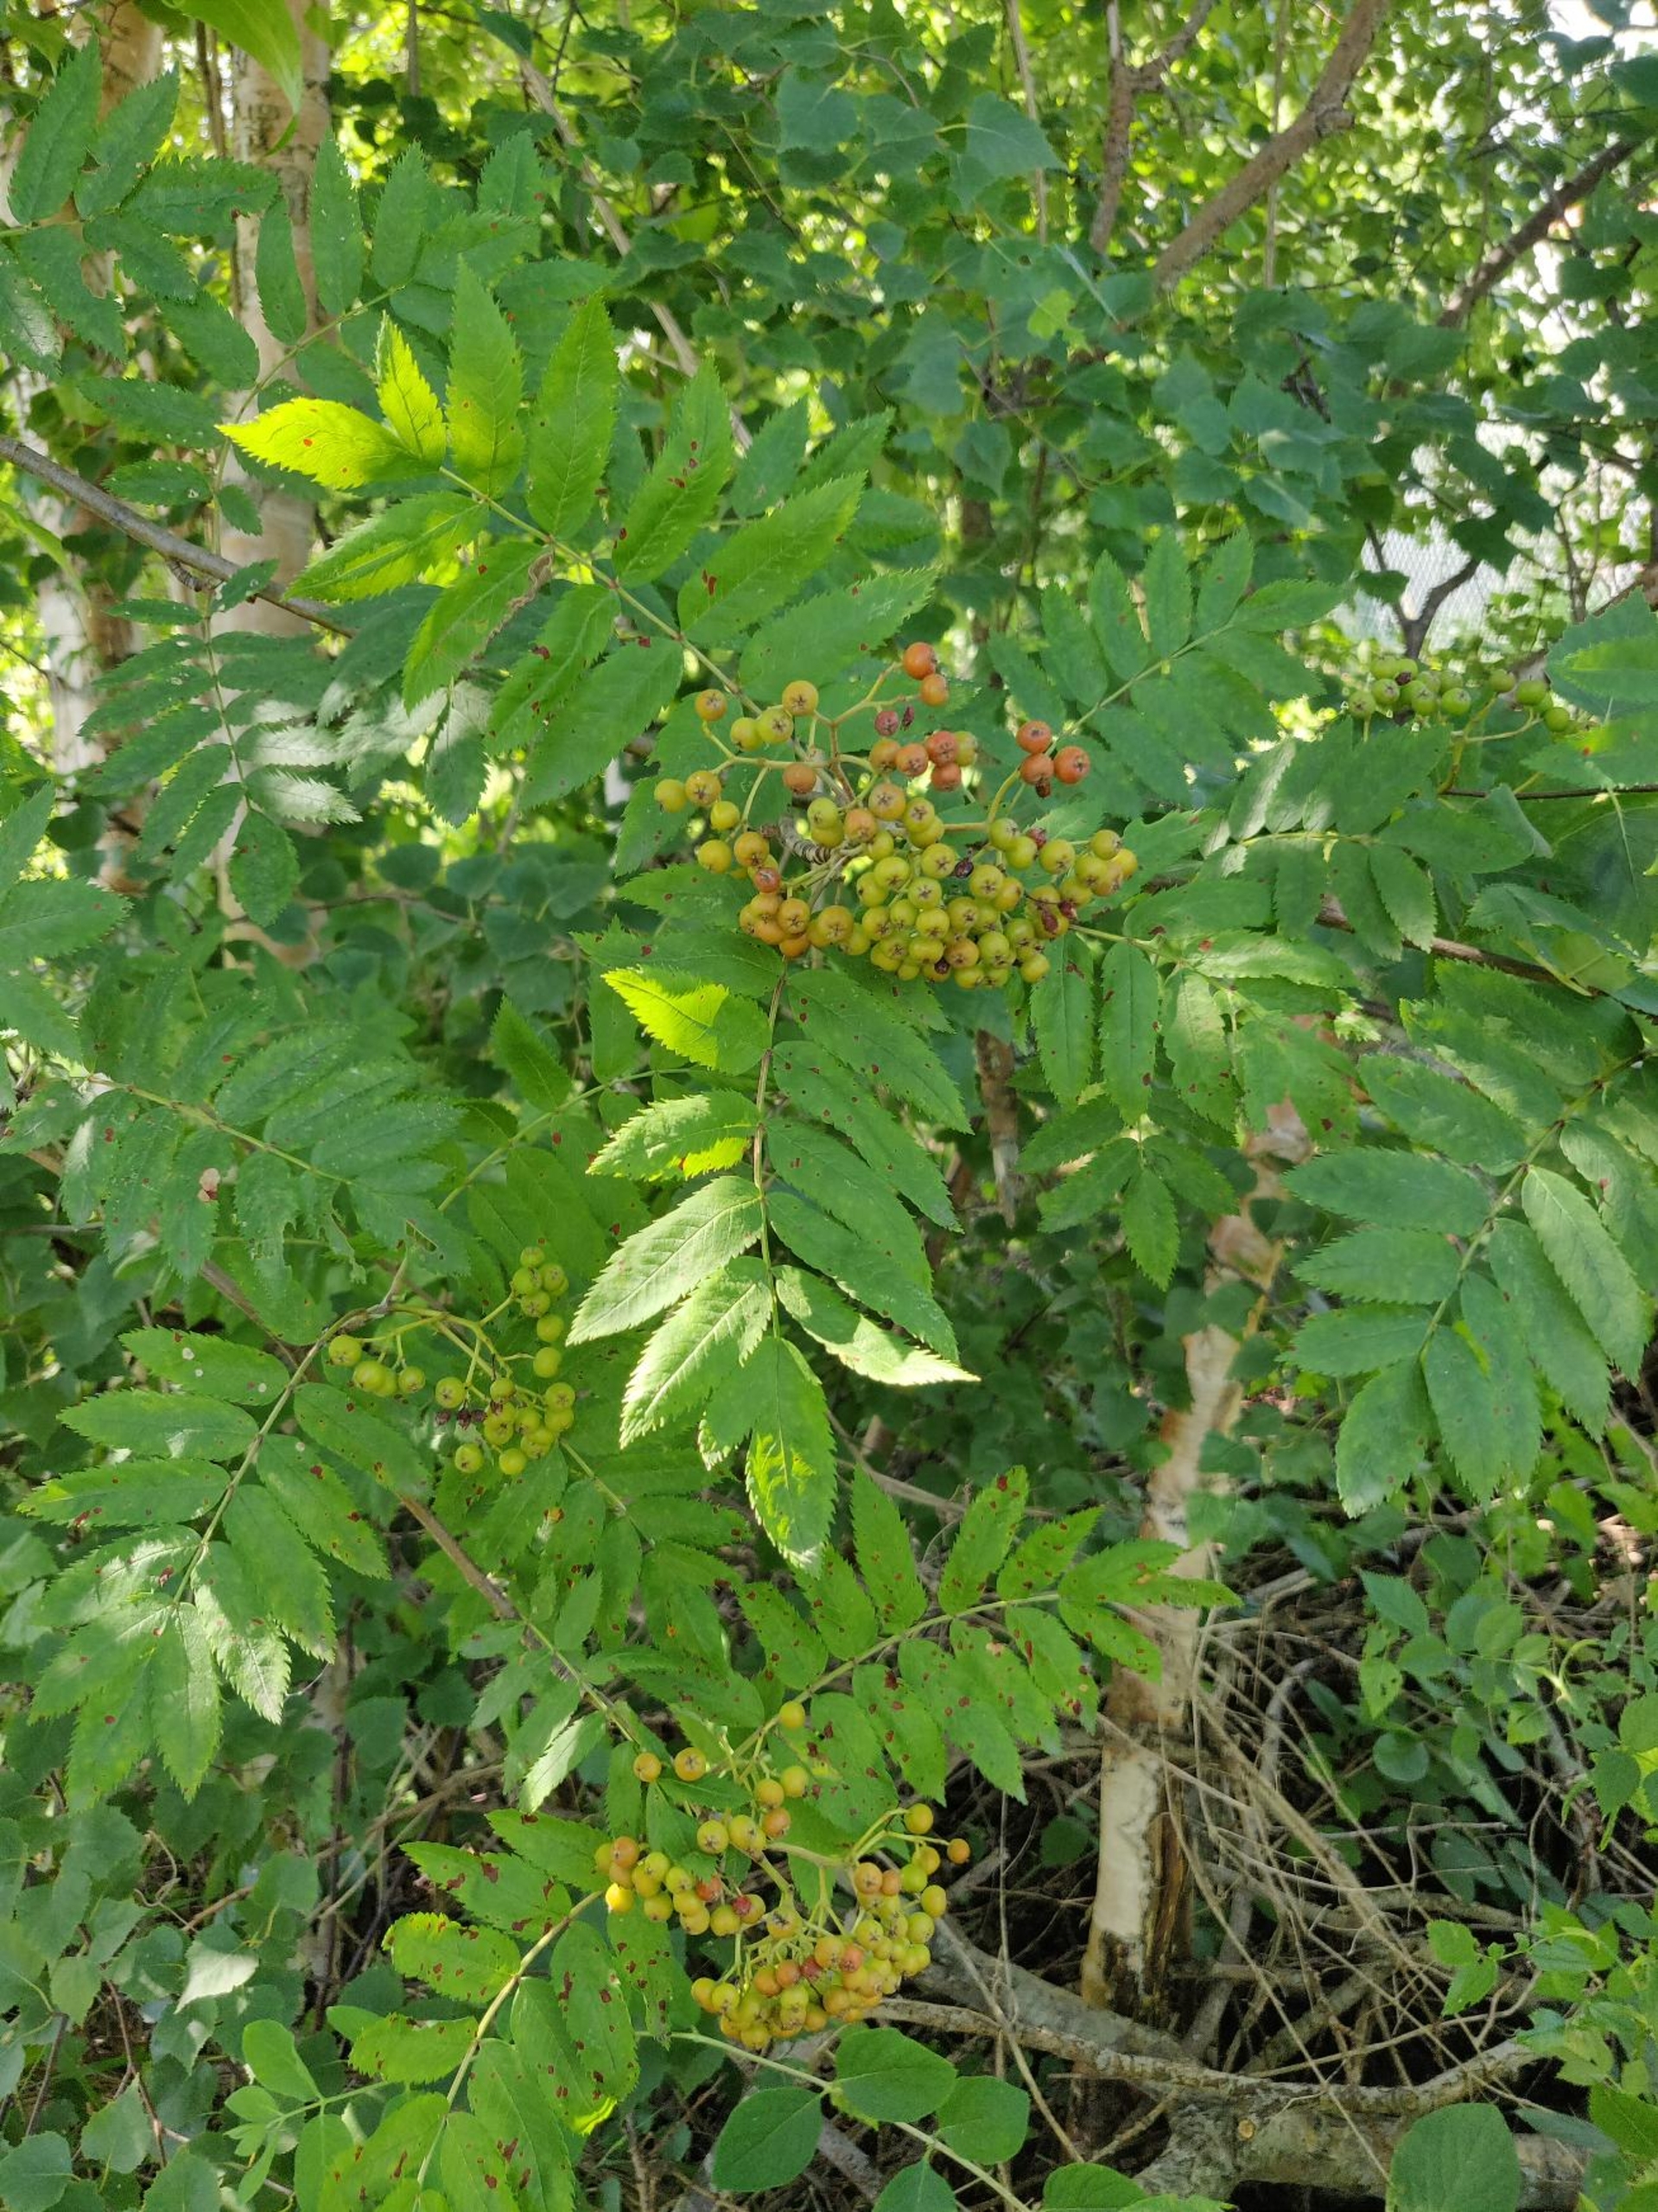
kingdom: Plantae
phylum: Tracheophyta
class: Magnoliopsida
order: Rosales
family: Rosaceae
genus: Sorbus
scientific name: Sorbus aucuparia
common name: Almindelig røn
